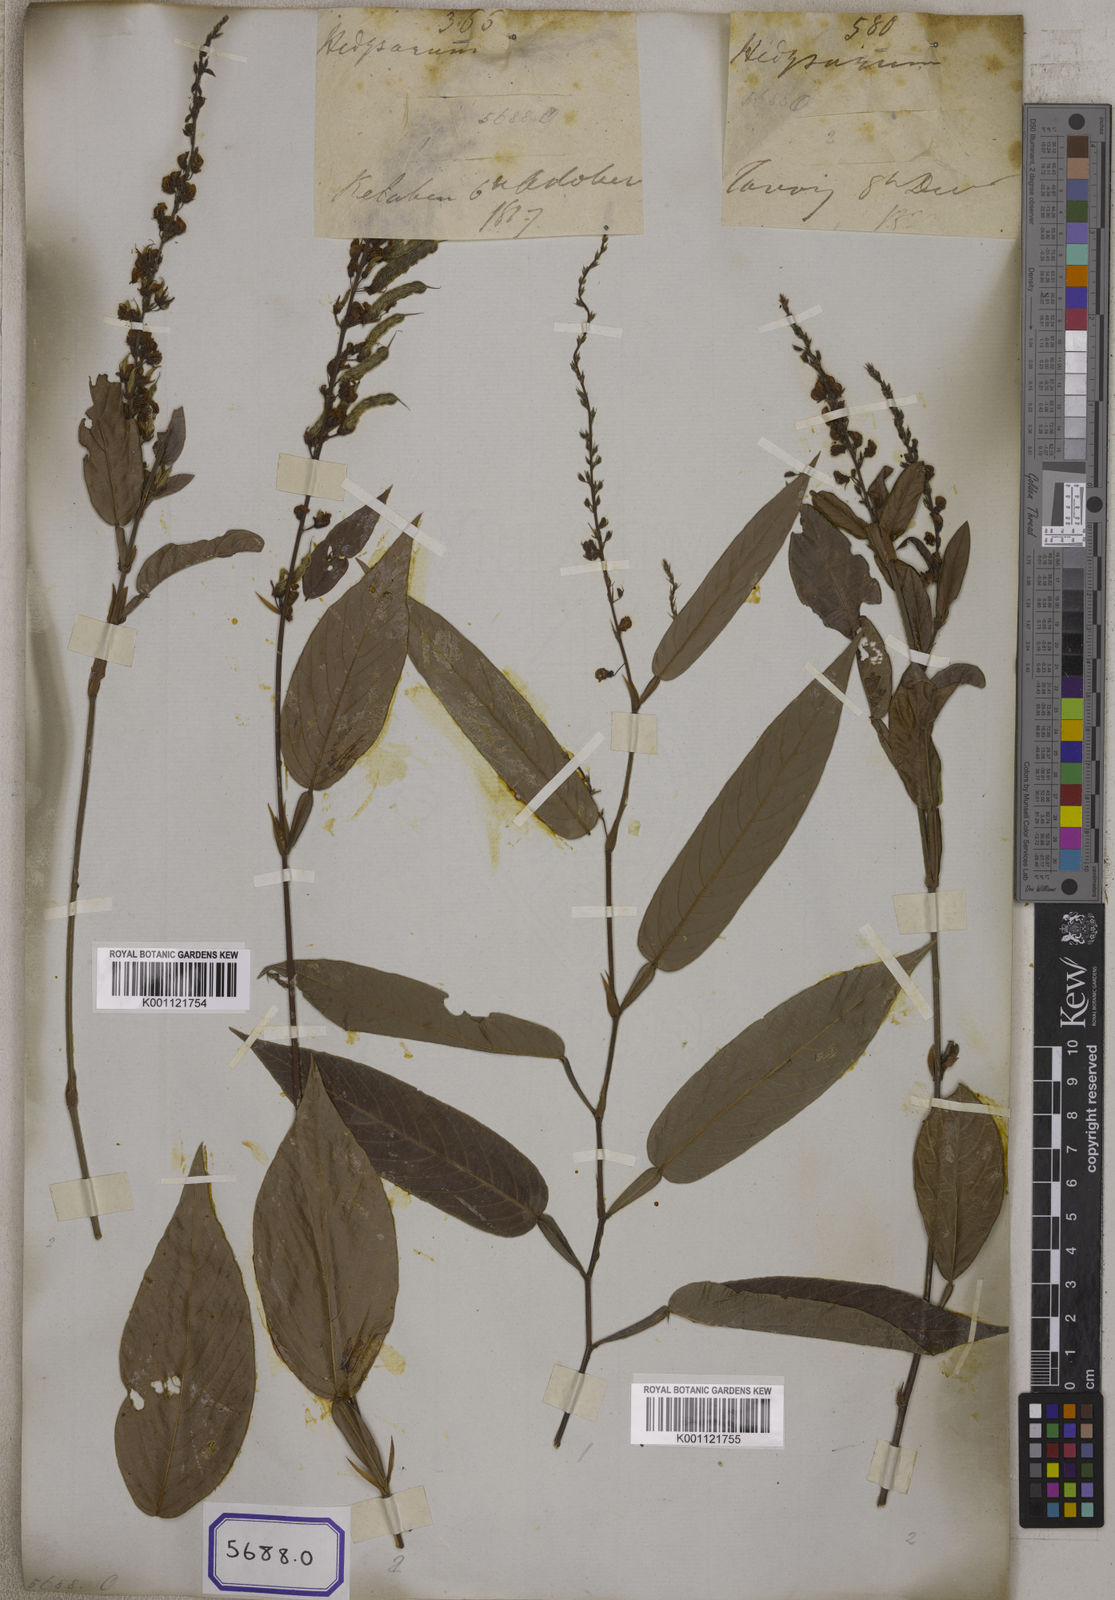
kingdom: Plantae
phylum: Tracheophyta
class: Magnoliopsida
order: Fabales
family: Fabaceae
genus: Tadehagi
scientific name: Tadehagi triquetrum
